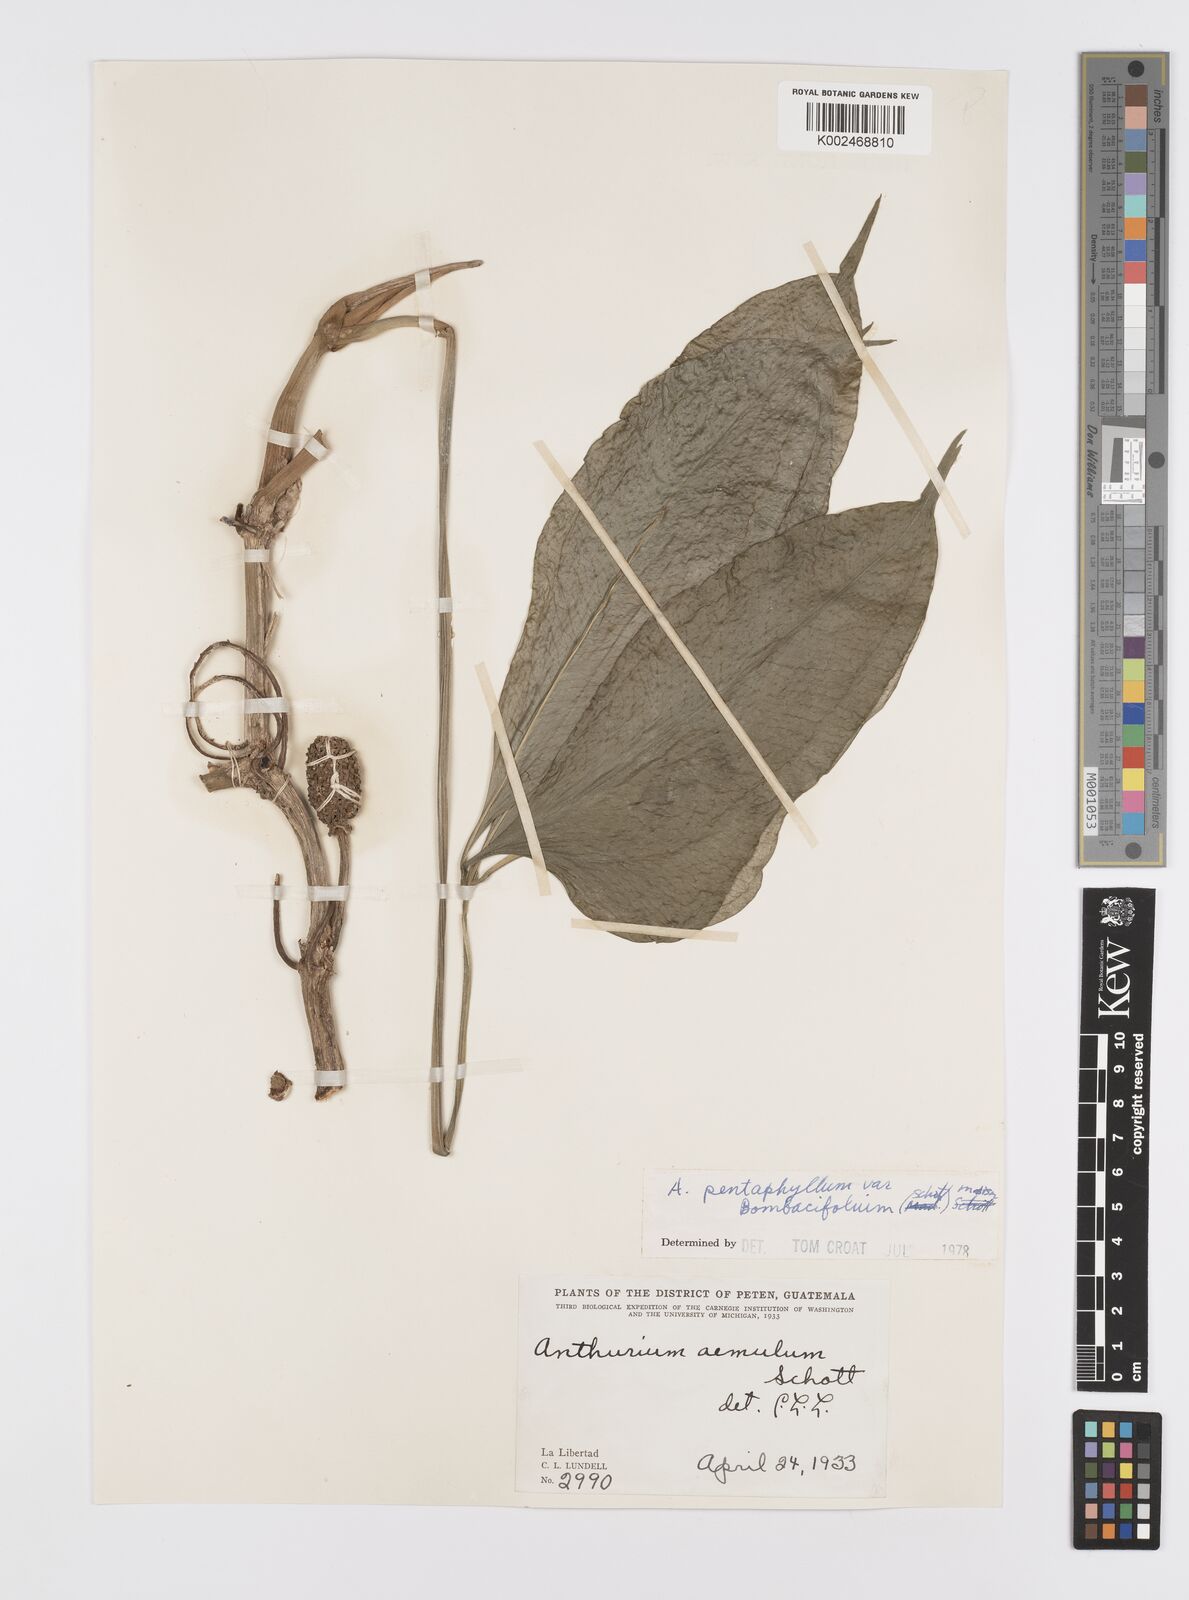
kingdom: Plantae
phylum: Tracheophyta
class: Liliopsida
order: Alismatales
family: Araceae
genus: Anthurium
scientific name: Anthurium pentaphyllum
